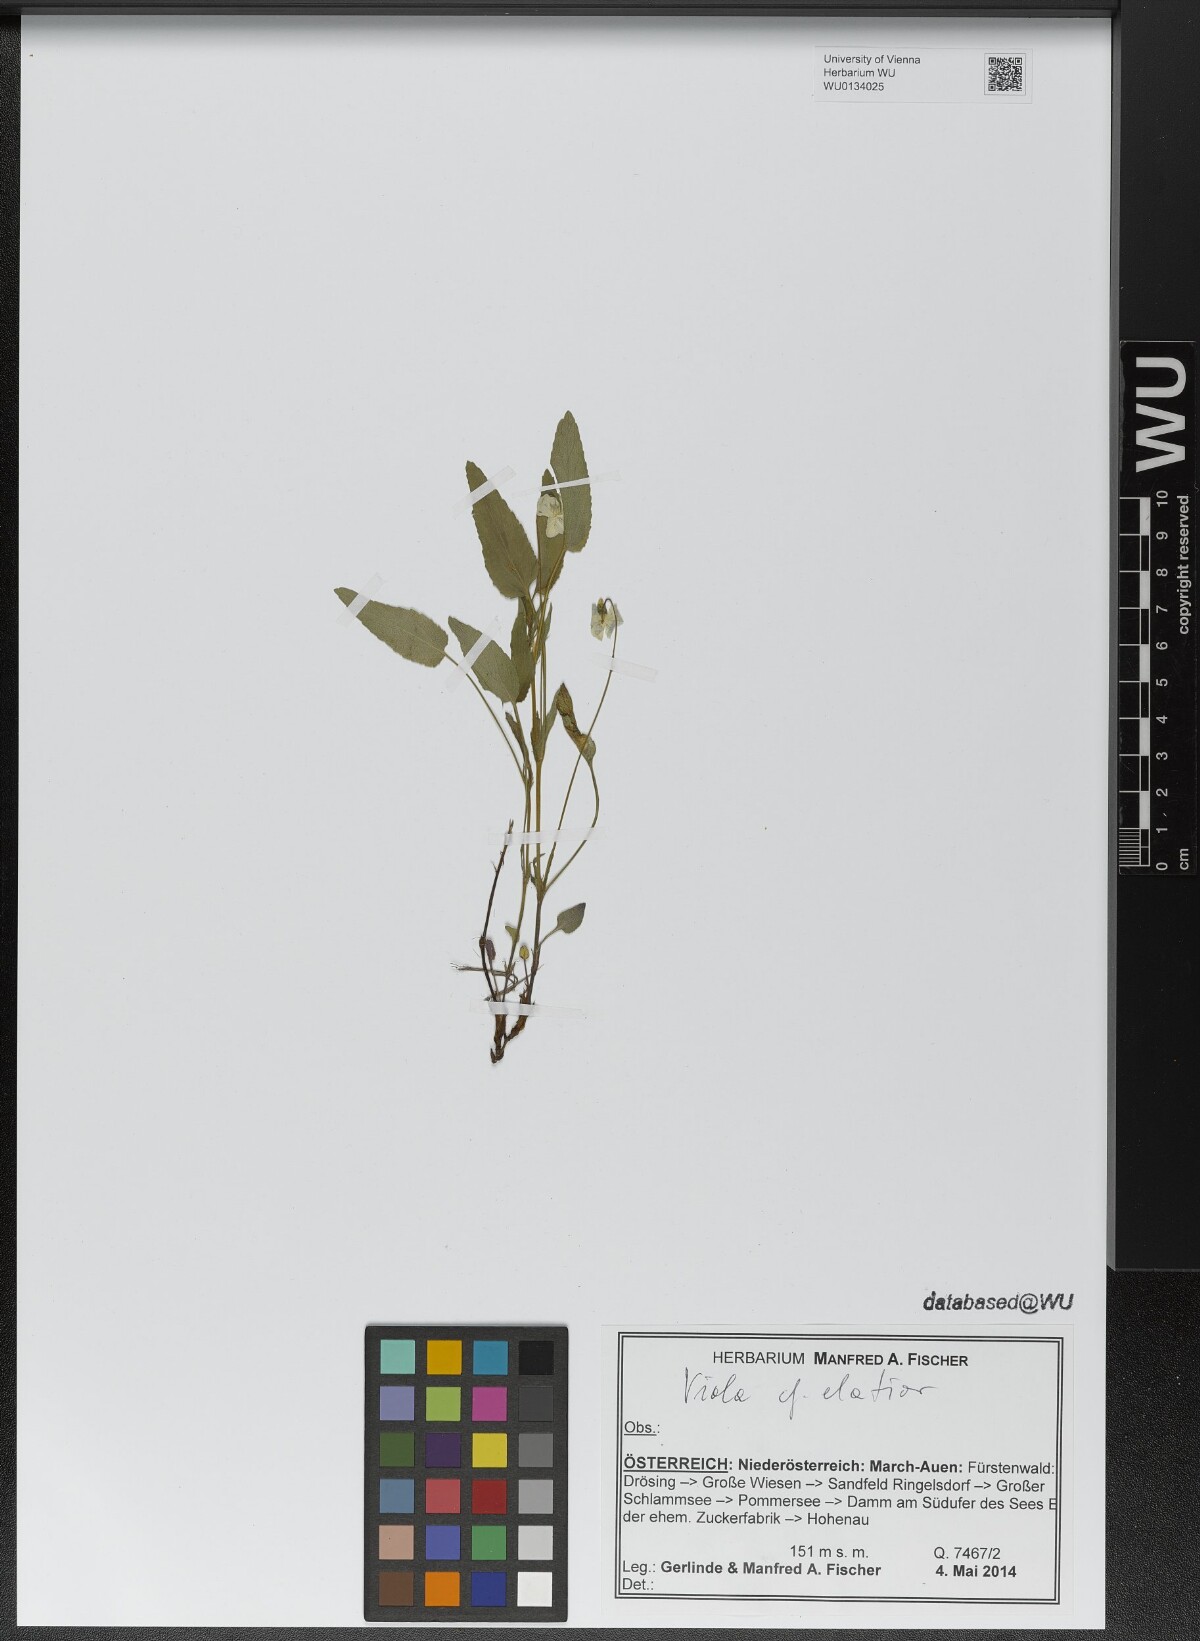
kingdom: Plantae
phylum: Tracheophyta
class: Magnoliopsida
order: Malpighiales
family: Violaceae
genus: Viola
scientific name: Viola elatior
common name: Tall violet
